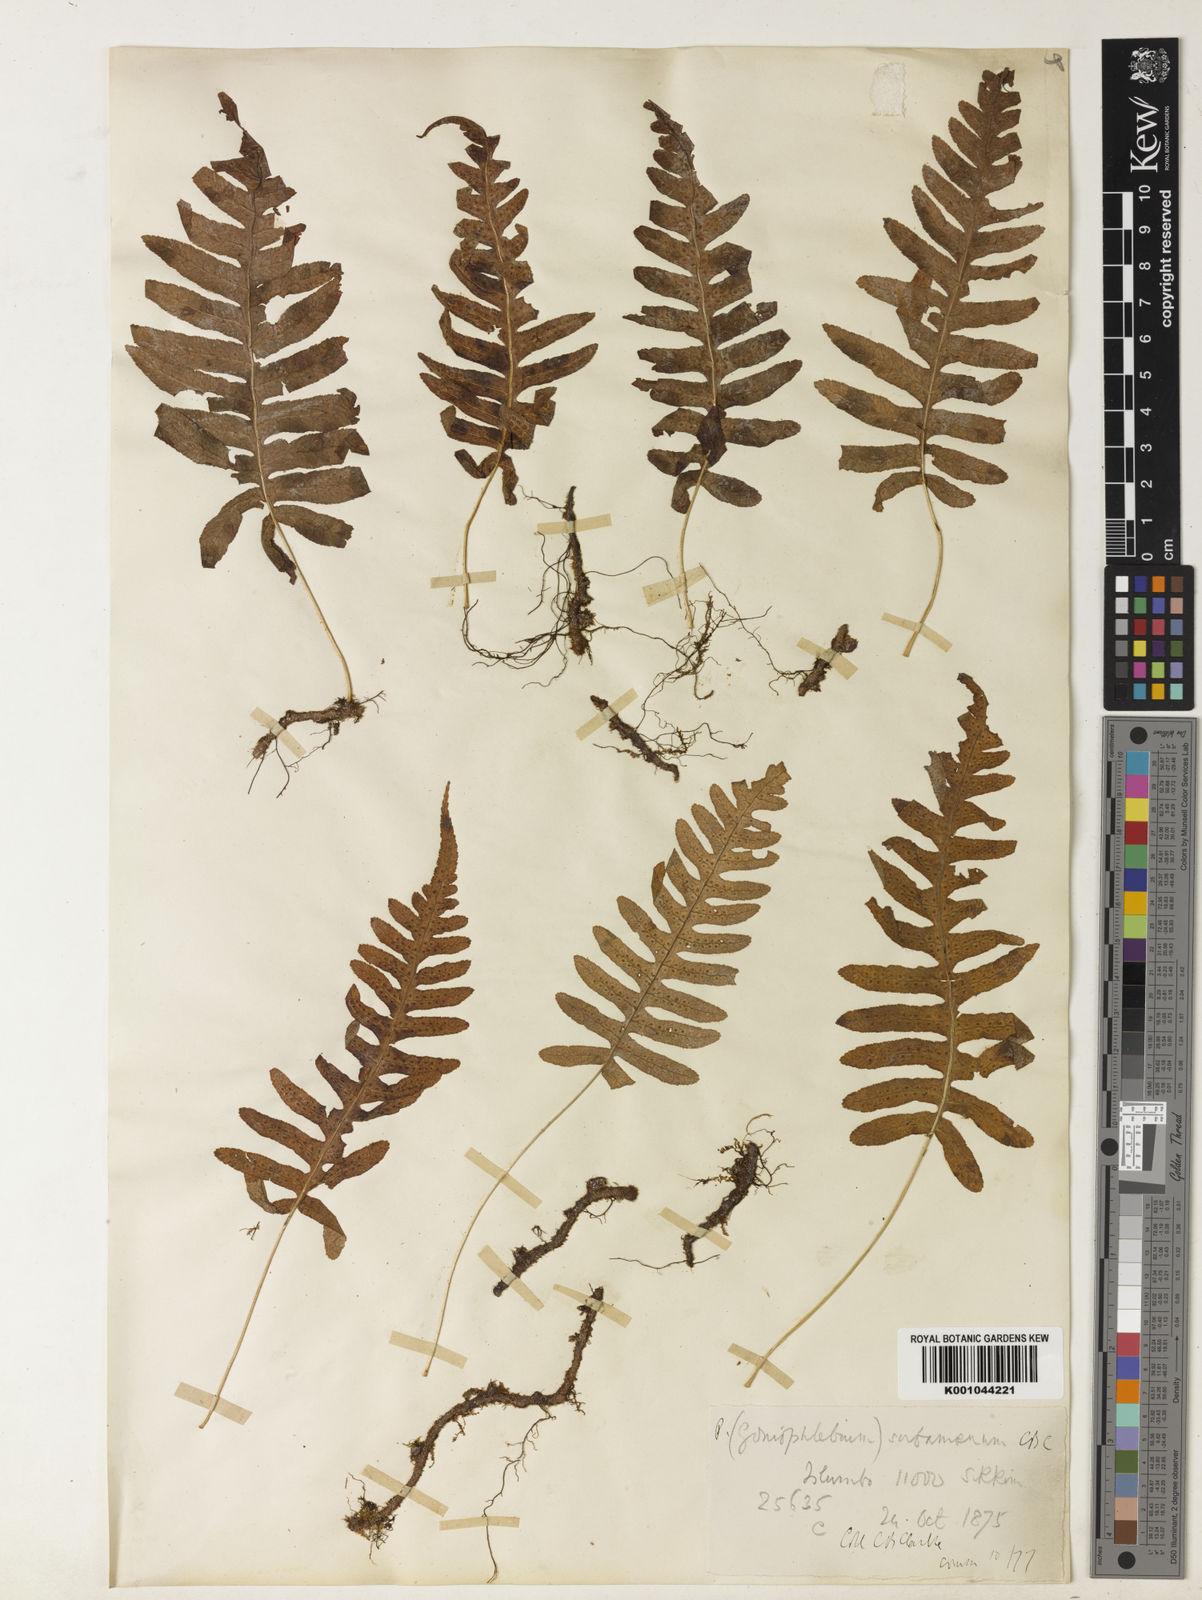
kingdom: Plantae
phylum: Tracheophyta
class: Polypodiopsida
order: Polypodiales
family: Polypodiaceae
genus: Goniophlebium
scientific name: Goniophlebium subamoenum
